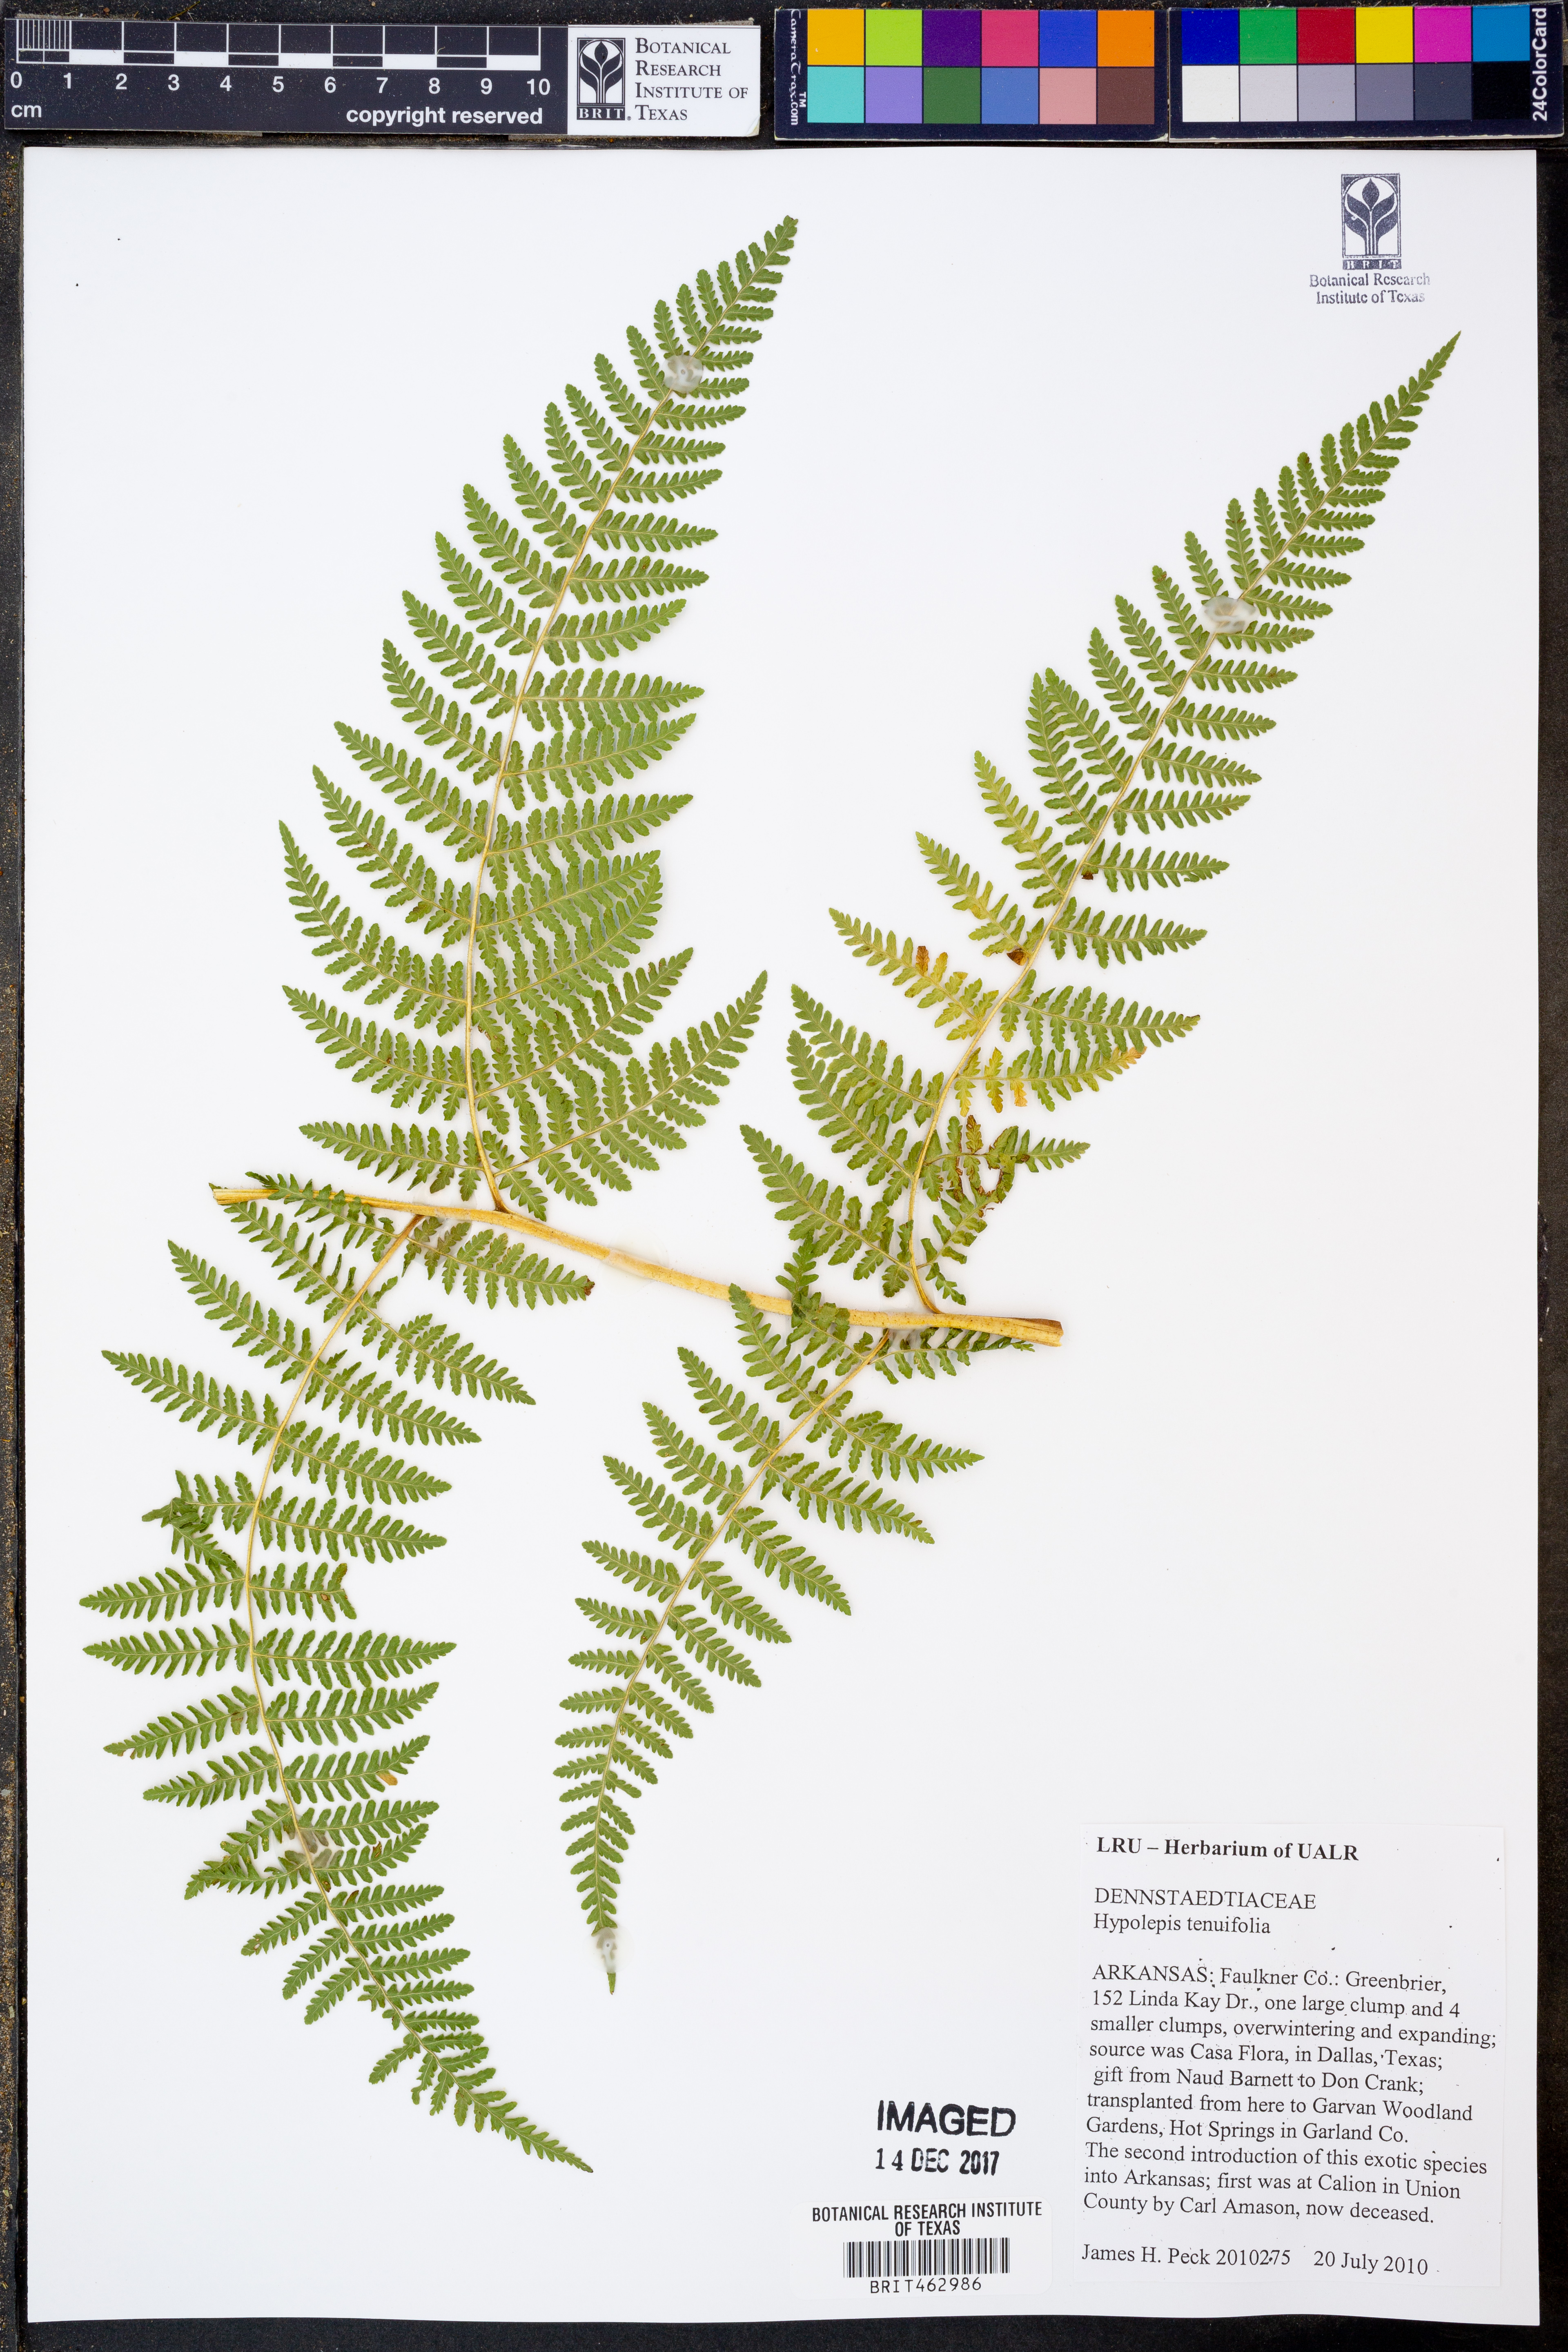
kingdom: Plantae
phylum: Tracheophyta
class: Polypodiopsida
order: Polypodiales
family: Dennstaedtiaceae
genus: Hypolepis
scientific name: Hypolepis tenuifolia
